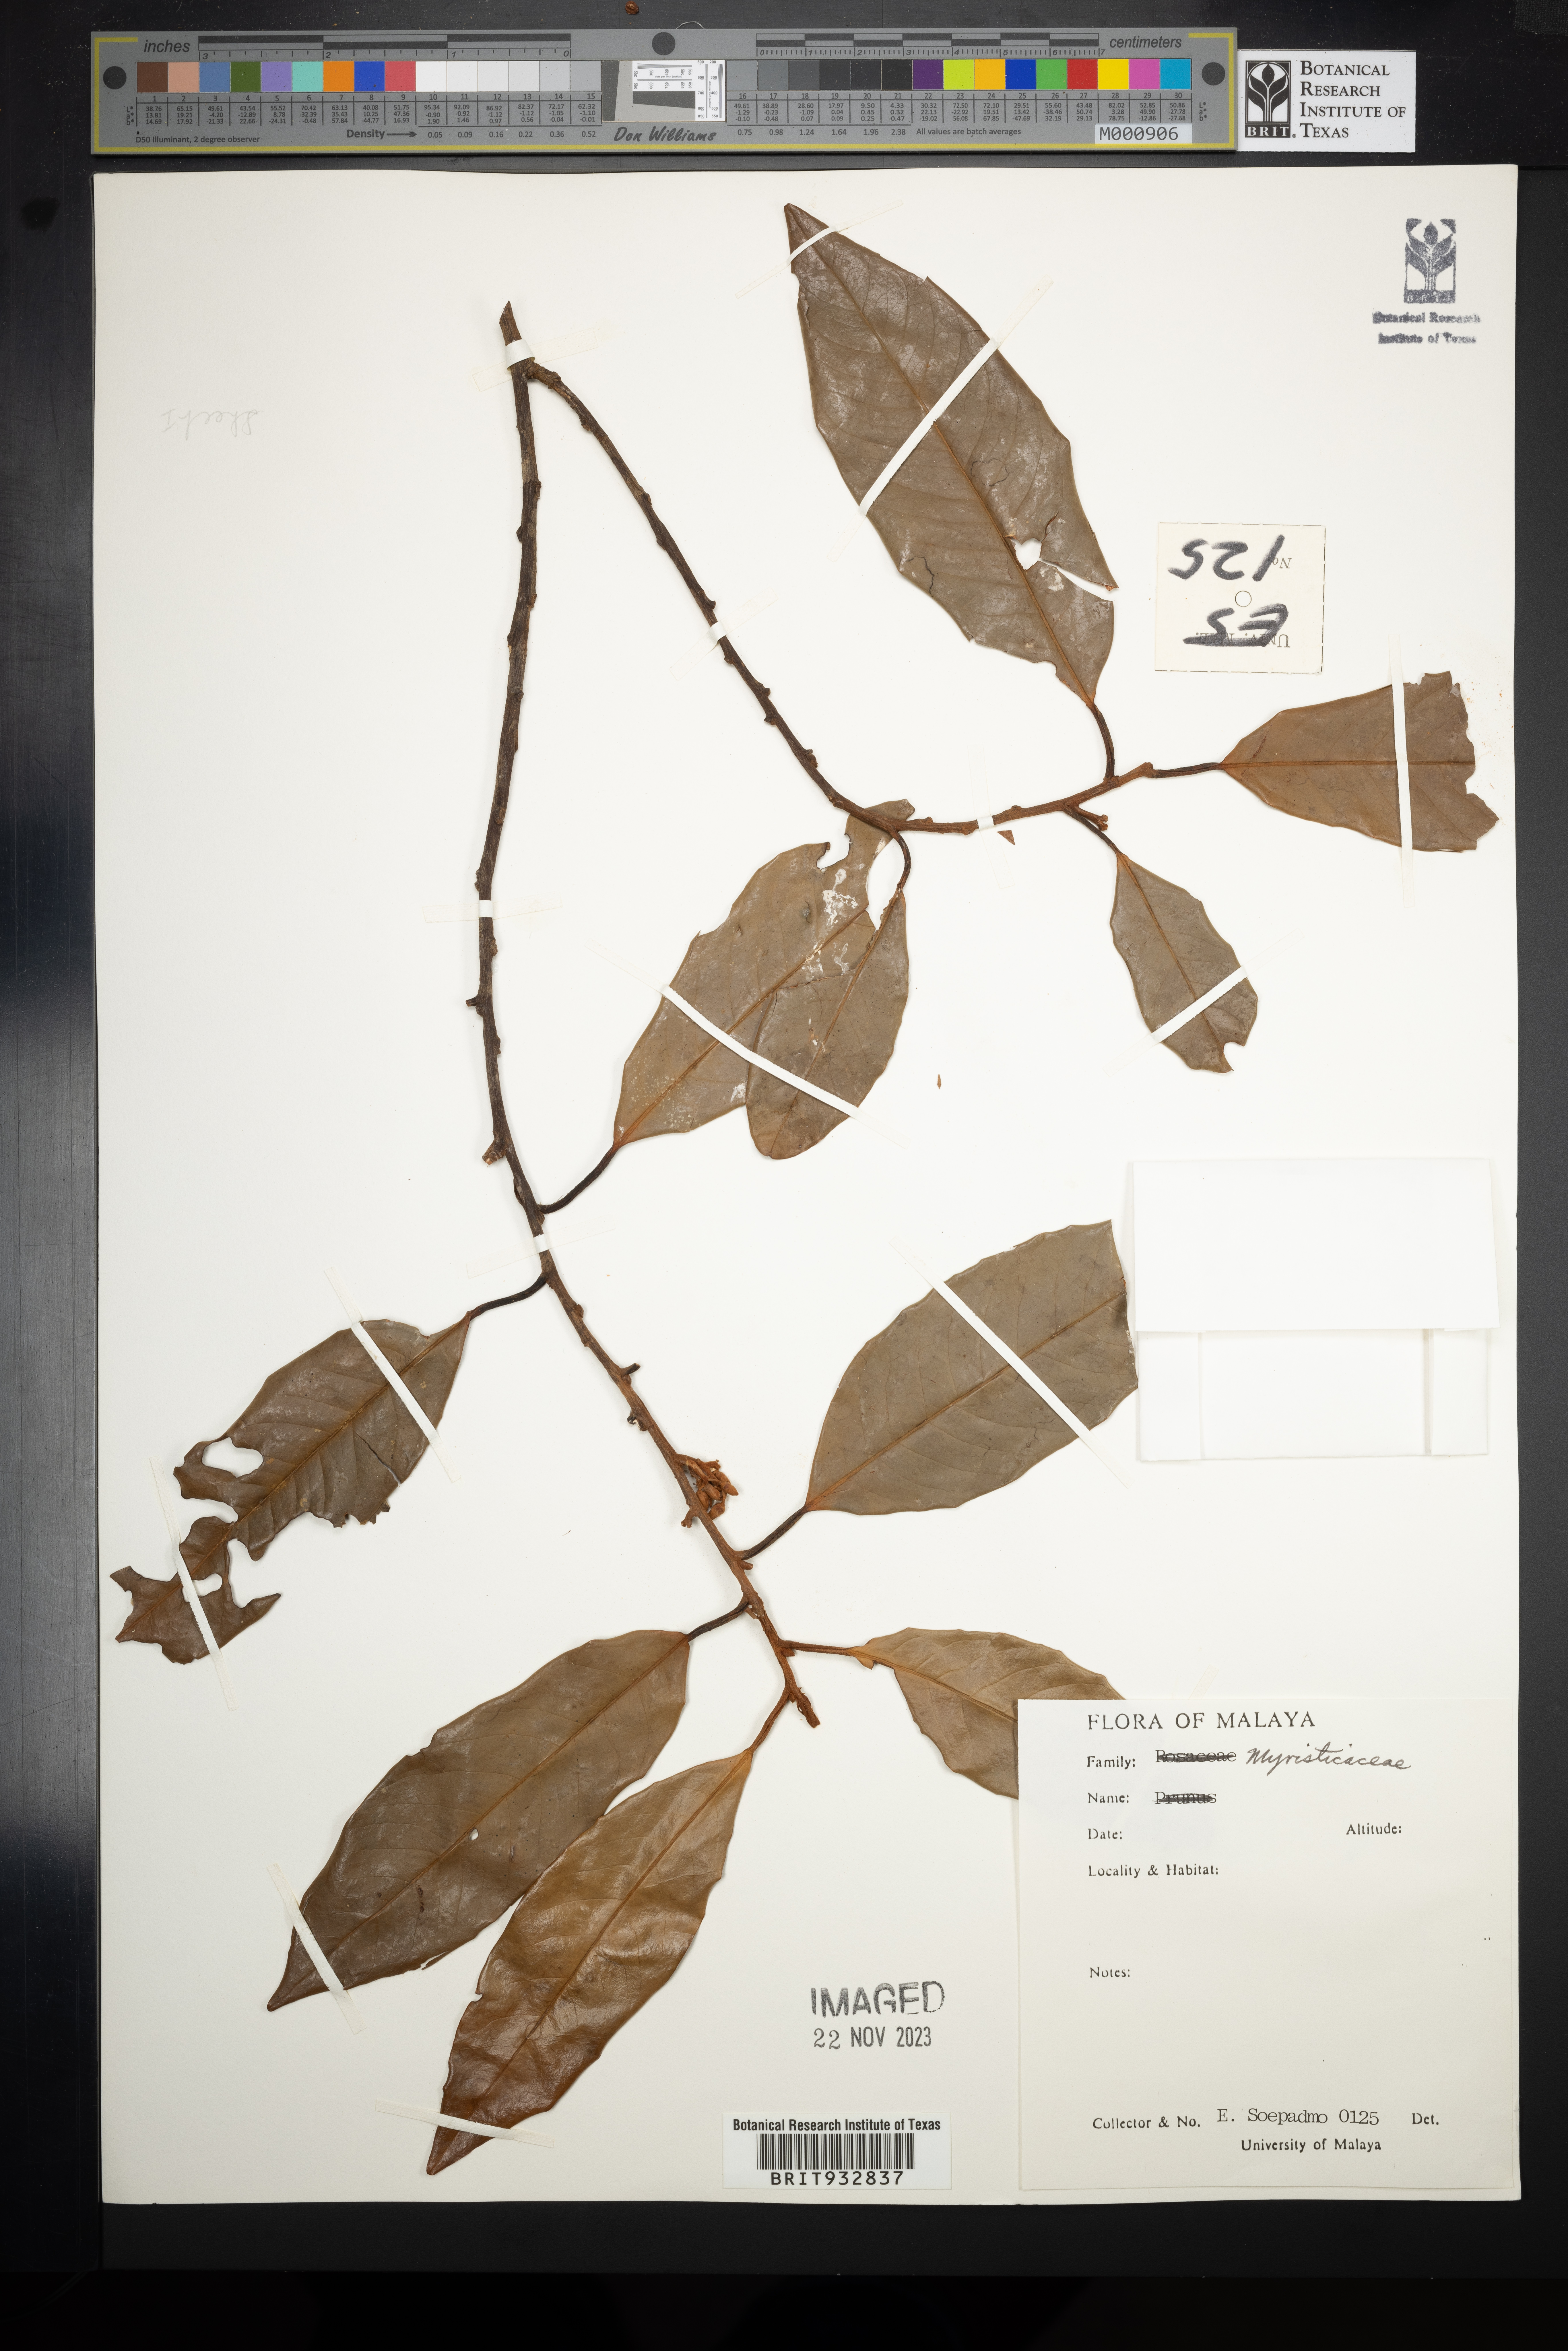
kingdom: Plantae
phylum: Tracheophyta
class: Magnoliopsida
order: Magnoliales
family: Myristicaceae
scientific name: Myristicaceae
